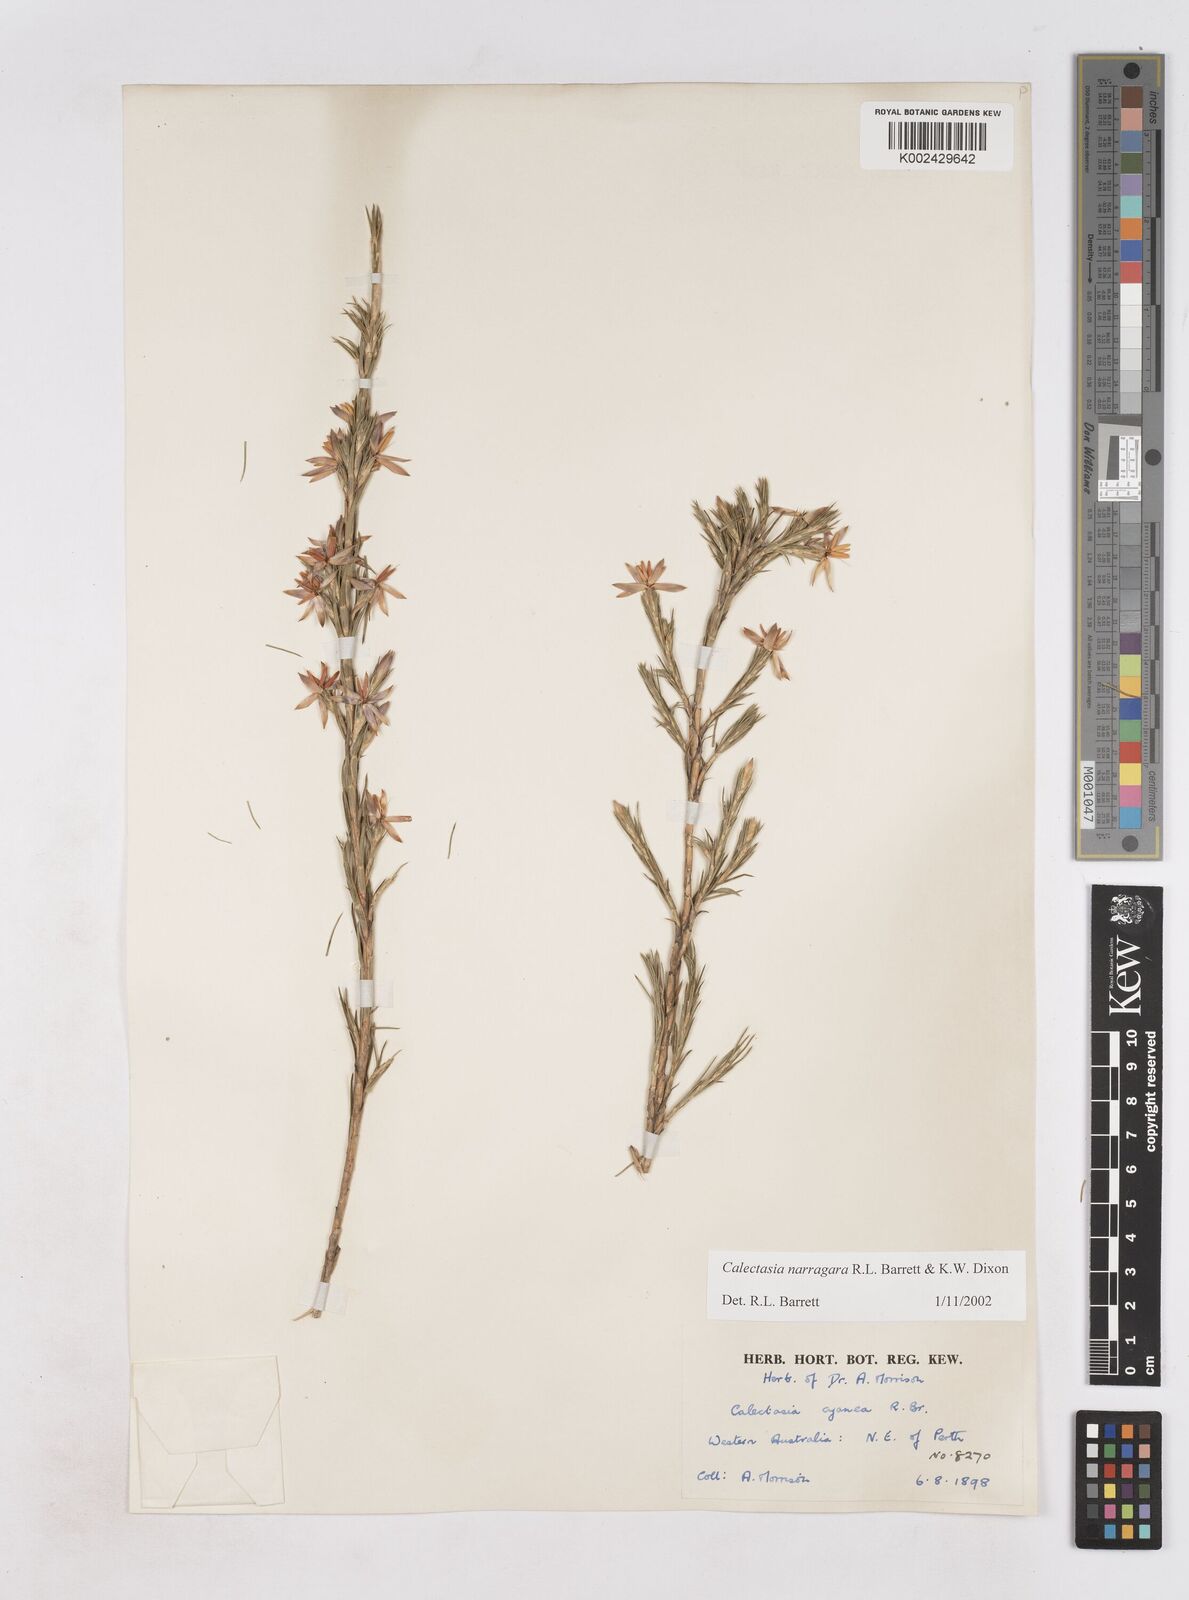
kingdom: Plantae
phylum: Tracheophyta
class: Liliopsida
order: Arecales
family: Dasypogonaceae
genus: Calectasia
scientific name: Calectasia narragara
